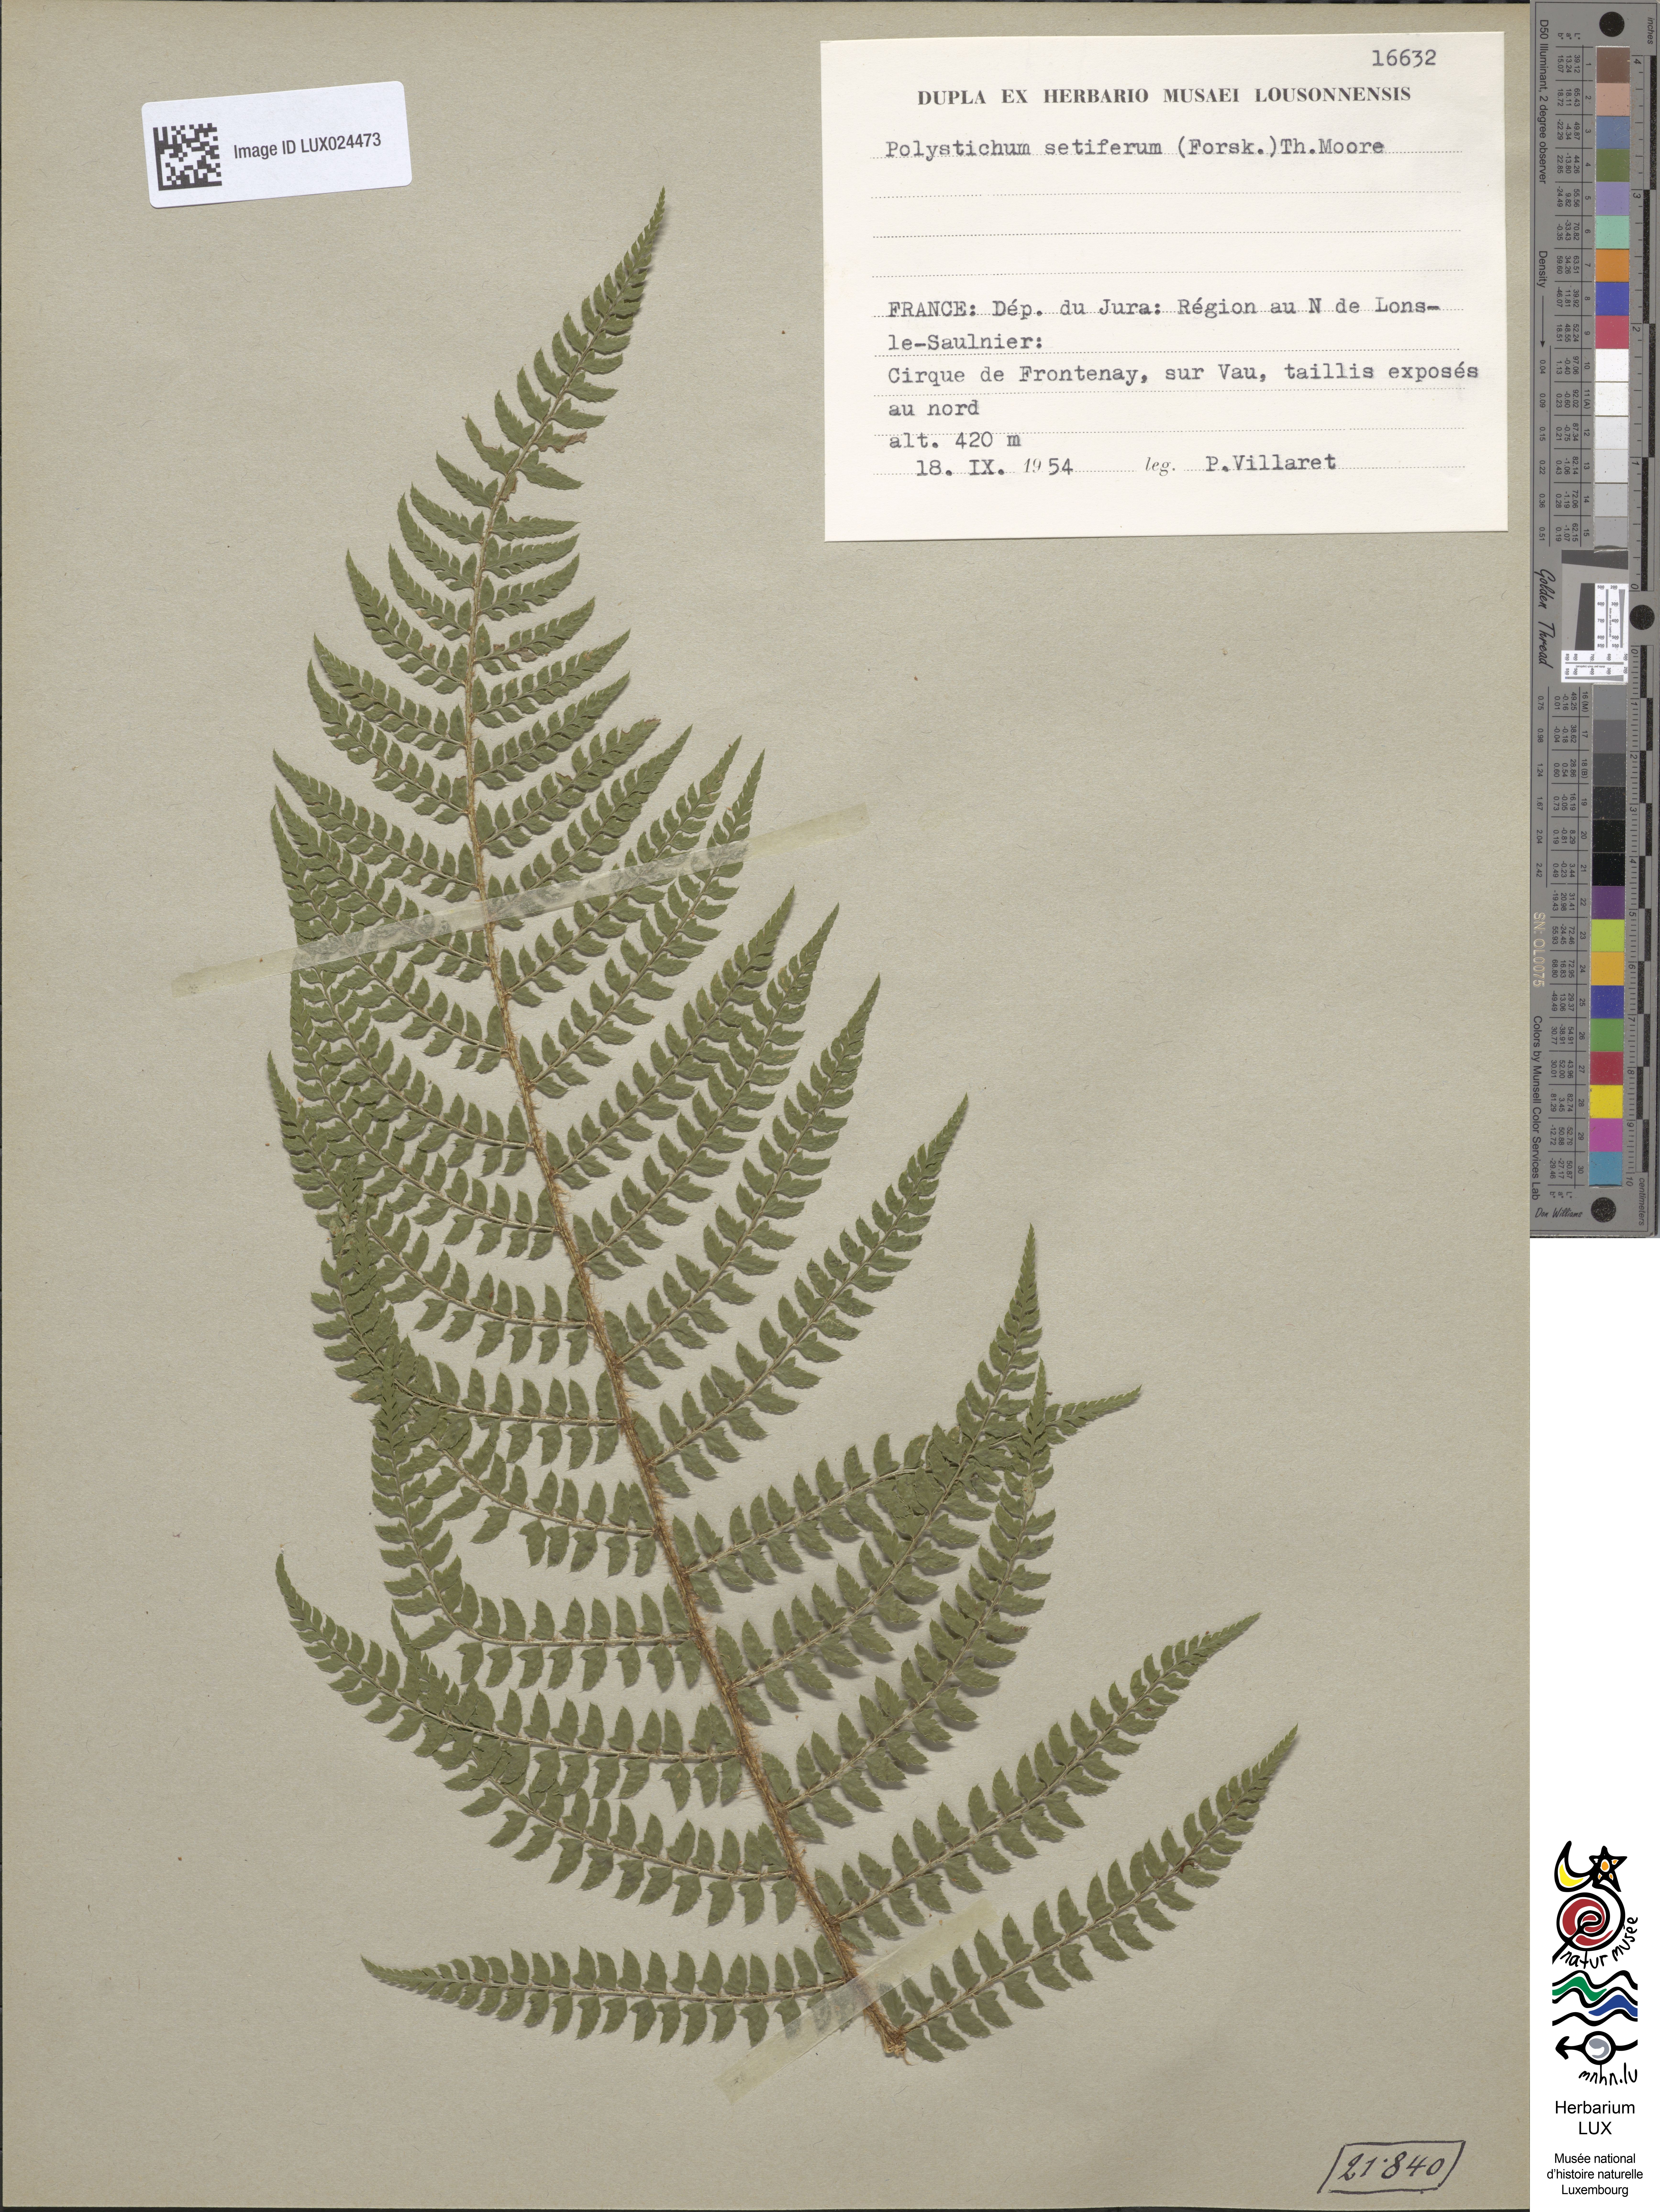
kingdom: Plantae
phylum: Tracheophyta
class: Polypodiopsida
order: Polypodiales
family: Dryopteridaceae
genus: Polystichum
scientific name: Polystichum setiferum
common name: Soft shield-fern
